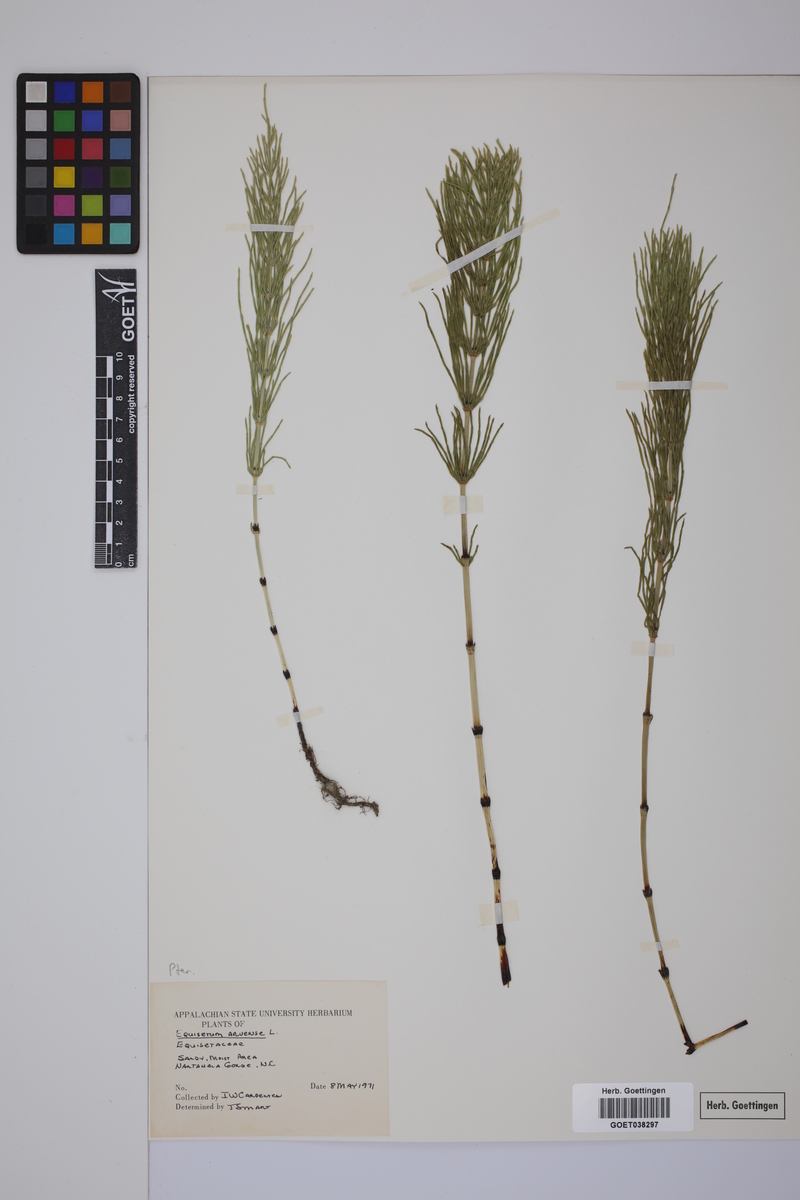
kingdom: Plantae
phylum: Tracheophyta
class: Polypodiopsida
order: Equisetales
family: Equisetaceae
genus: Equisetum
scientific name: Equisetum arvense
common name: Field horsetail
